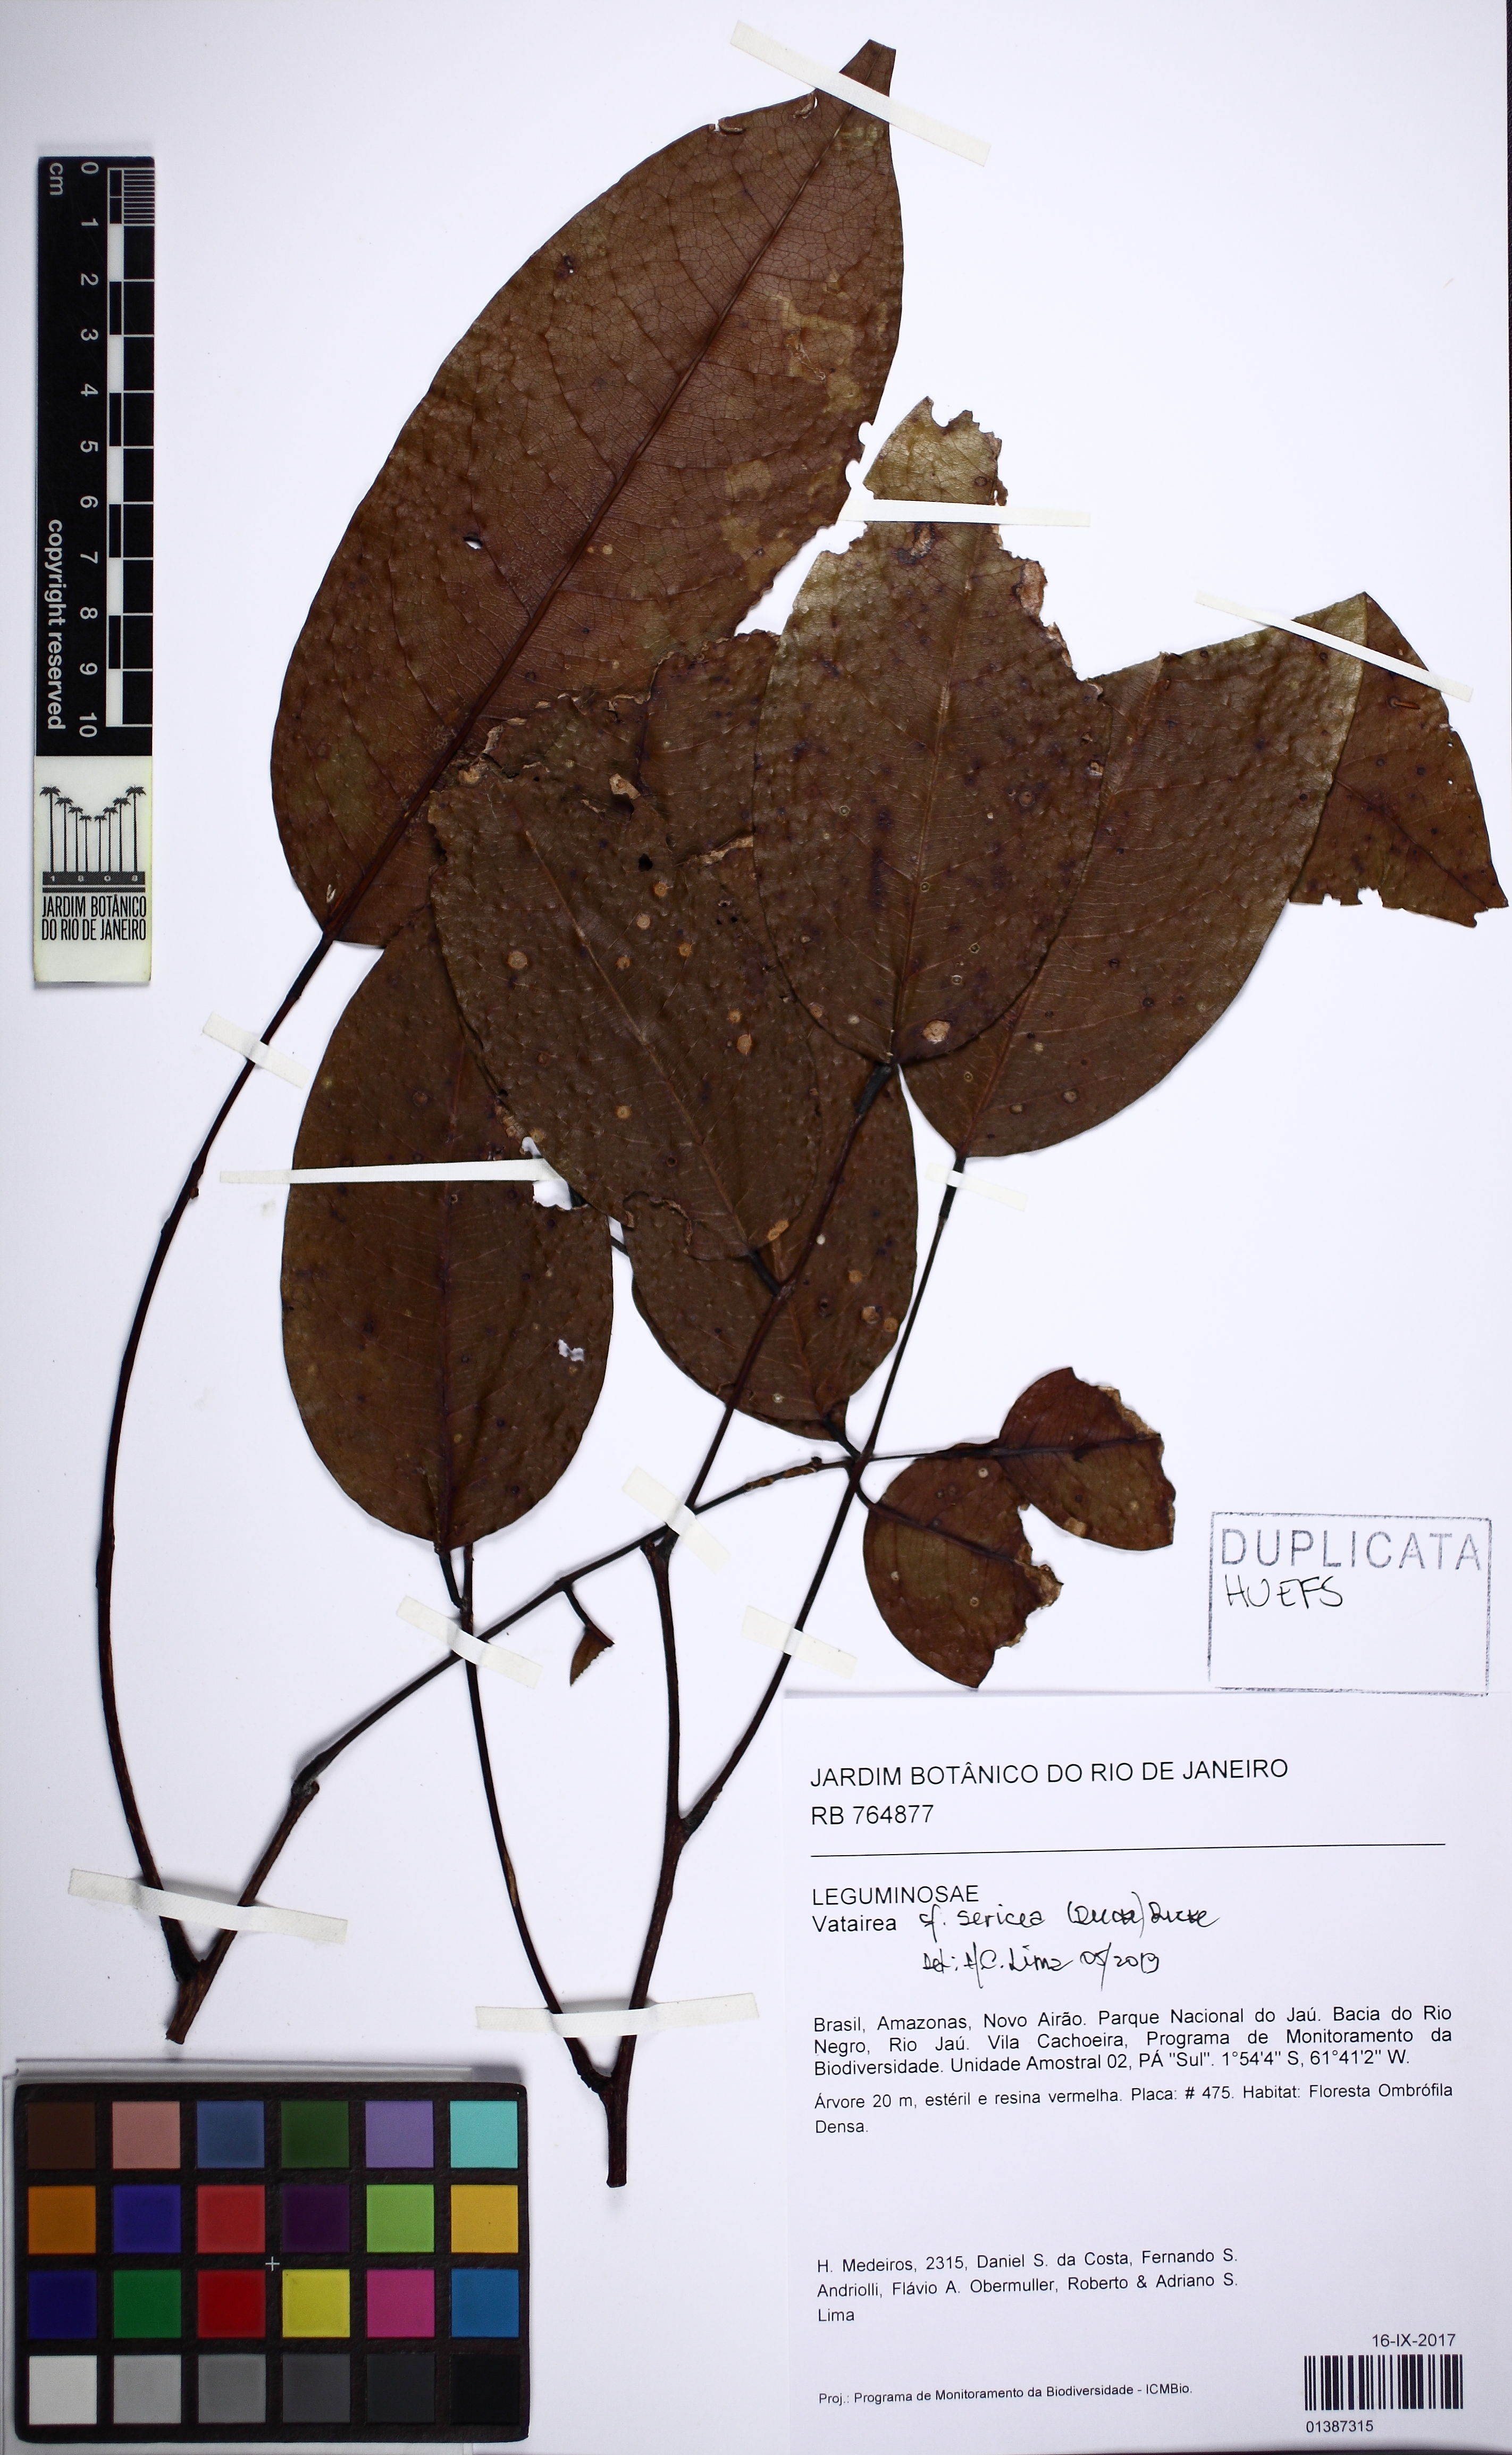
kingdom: Plantae
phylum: Tracheophyta
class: Magnoliopsida
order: Fabales
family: Fabaceae
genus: Vatairea
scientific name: Vatairea sericea
